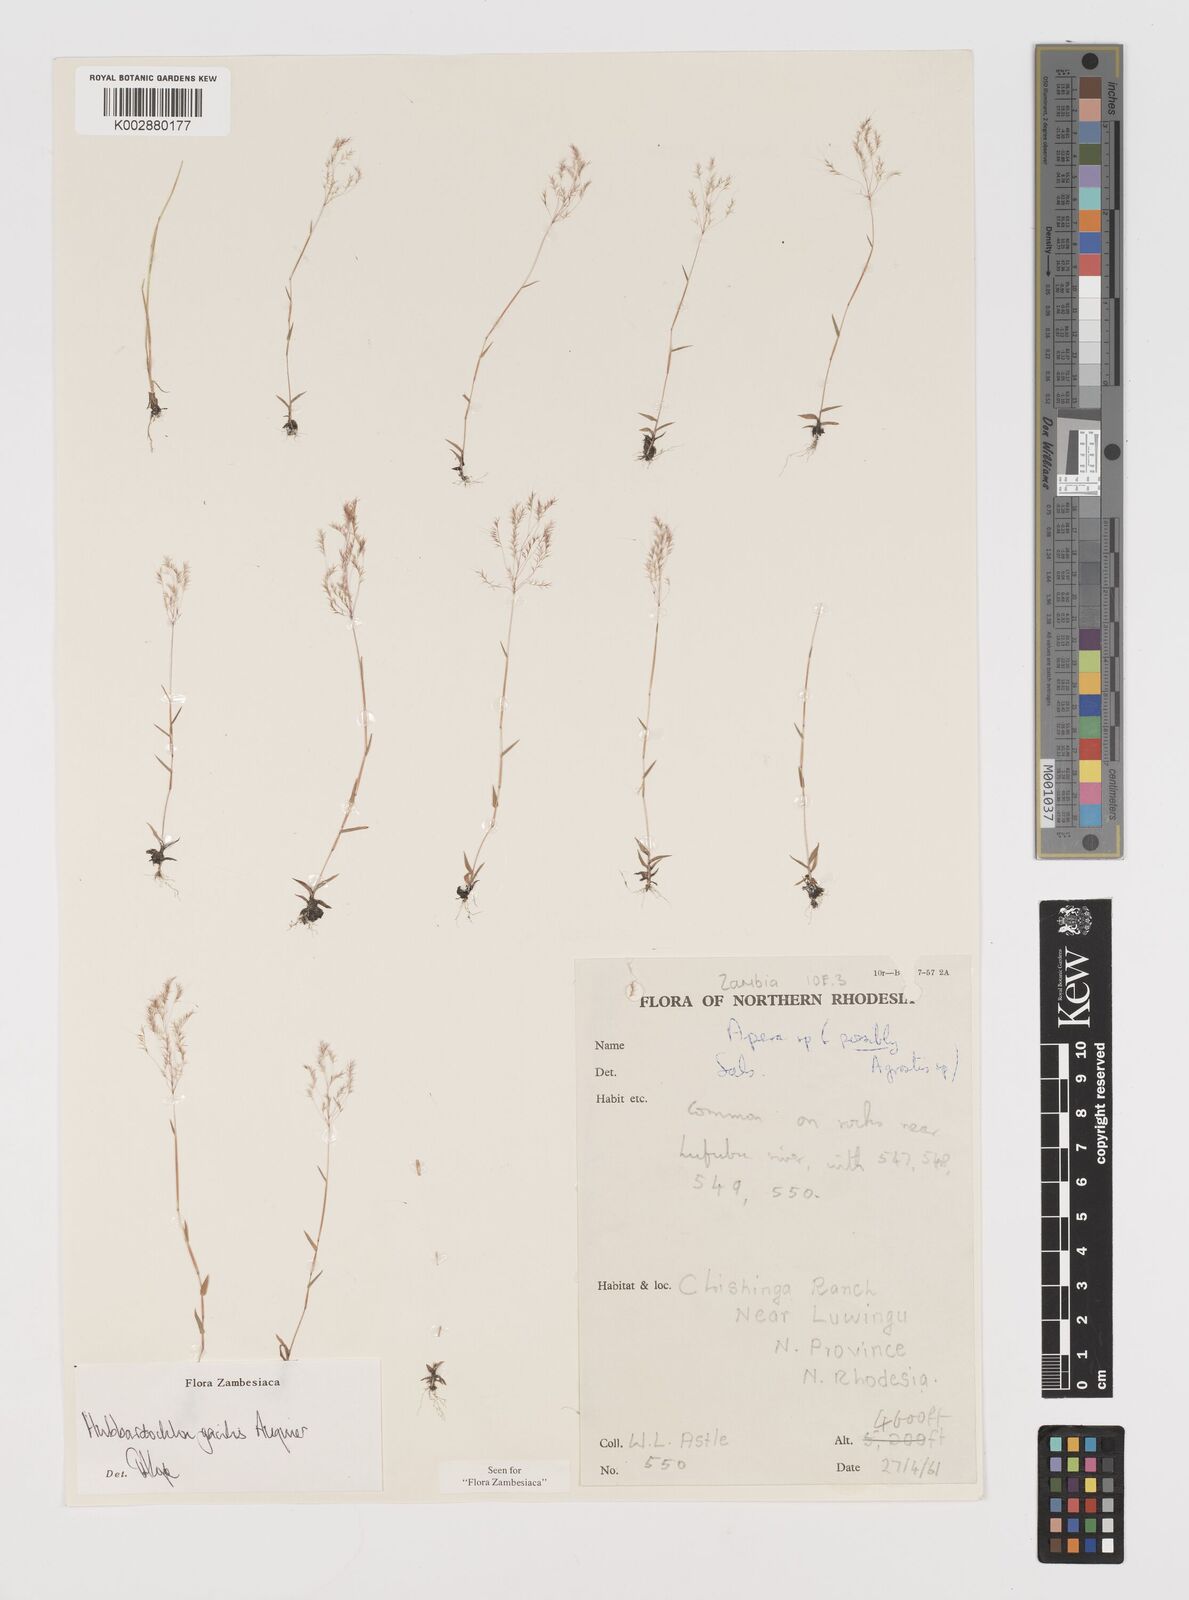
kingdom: Plantae
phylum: Tracheophyta
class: Liliopsida
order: Poales
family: Poaceae
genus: Hubbardochloa
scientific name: Hubbardochloa gracilis
